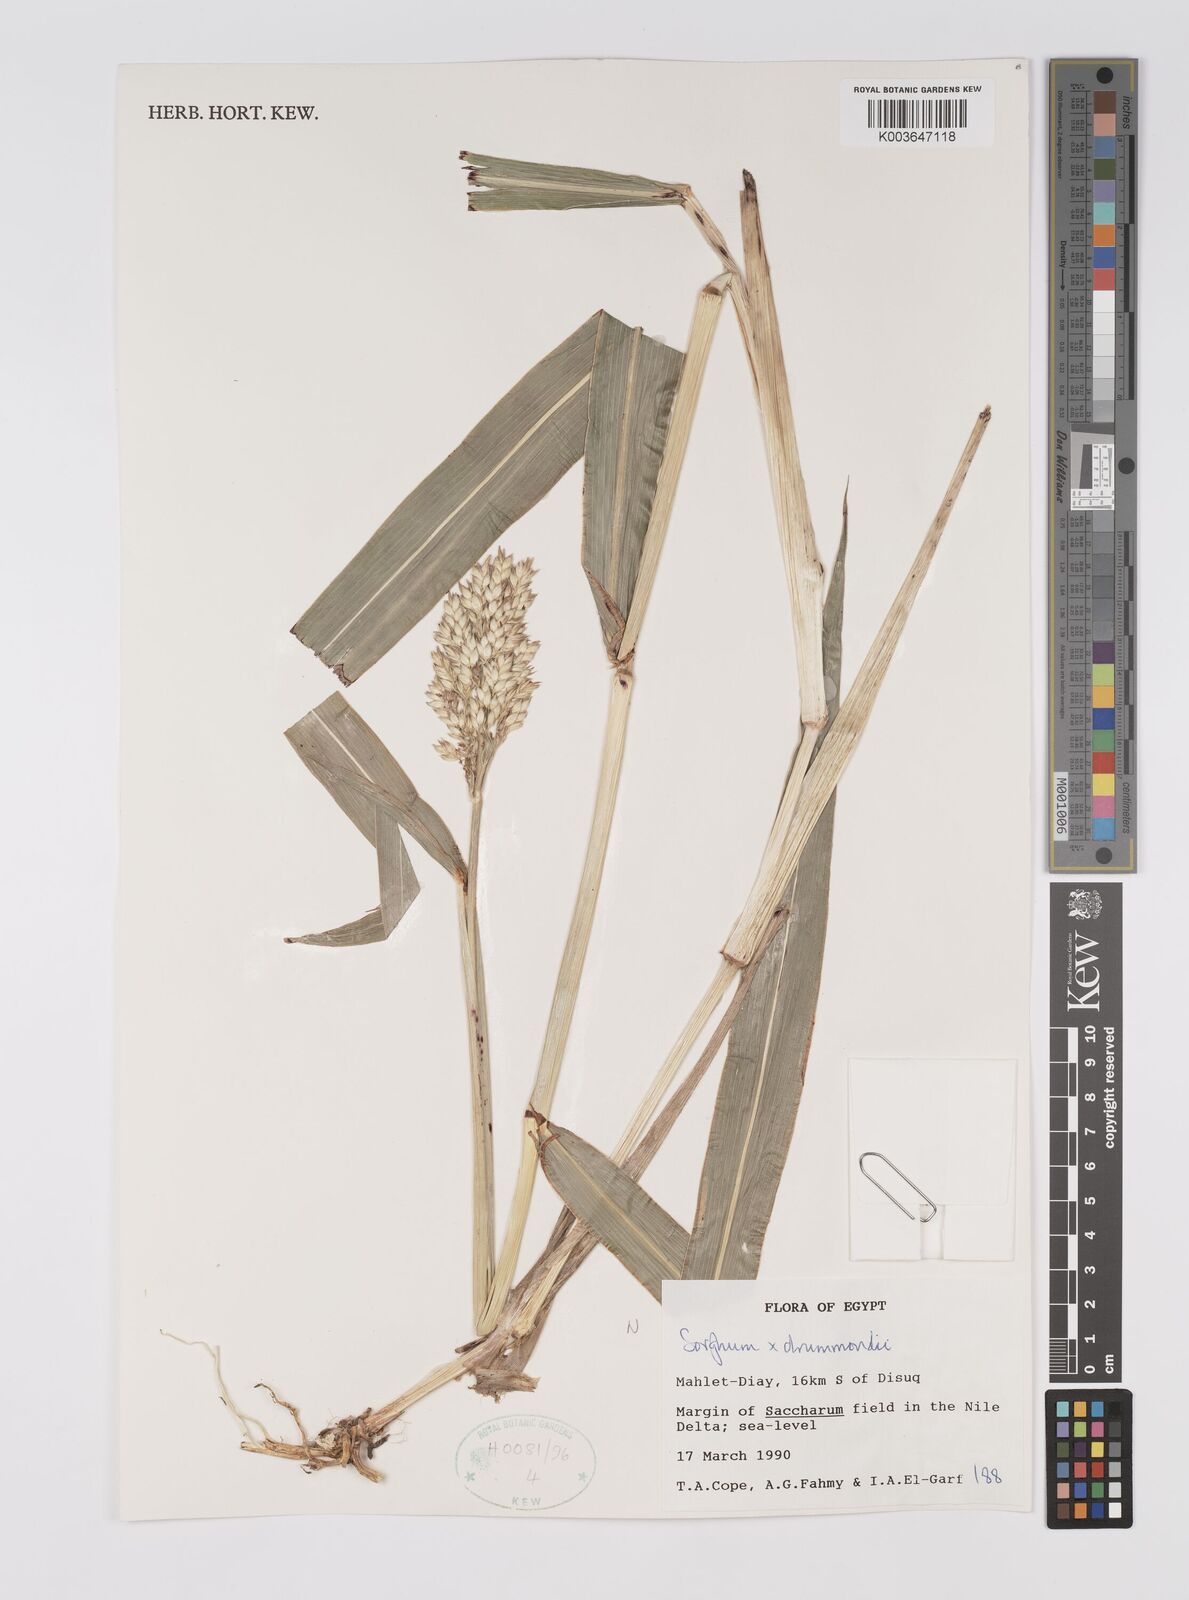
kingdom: Plantae
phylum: Tracheophyta
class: Liliopsida
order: Poales
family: Poaceae
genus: Sorghum
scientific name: Sorghum drummondii
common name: Sudangrass
